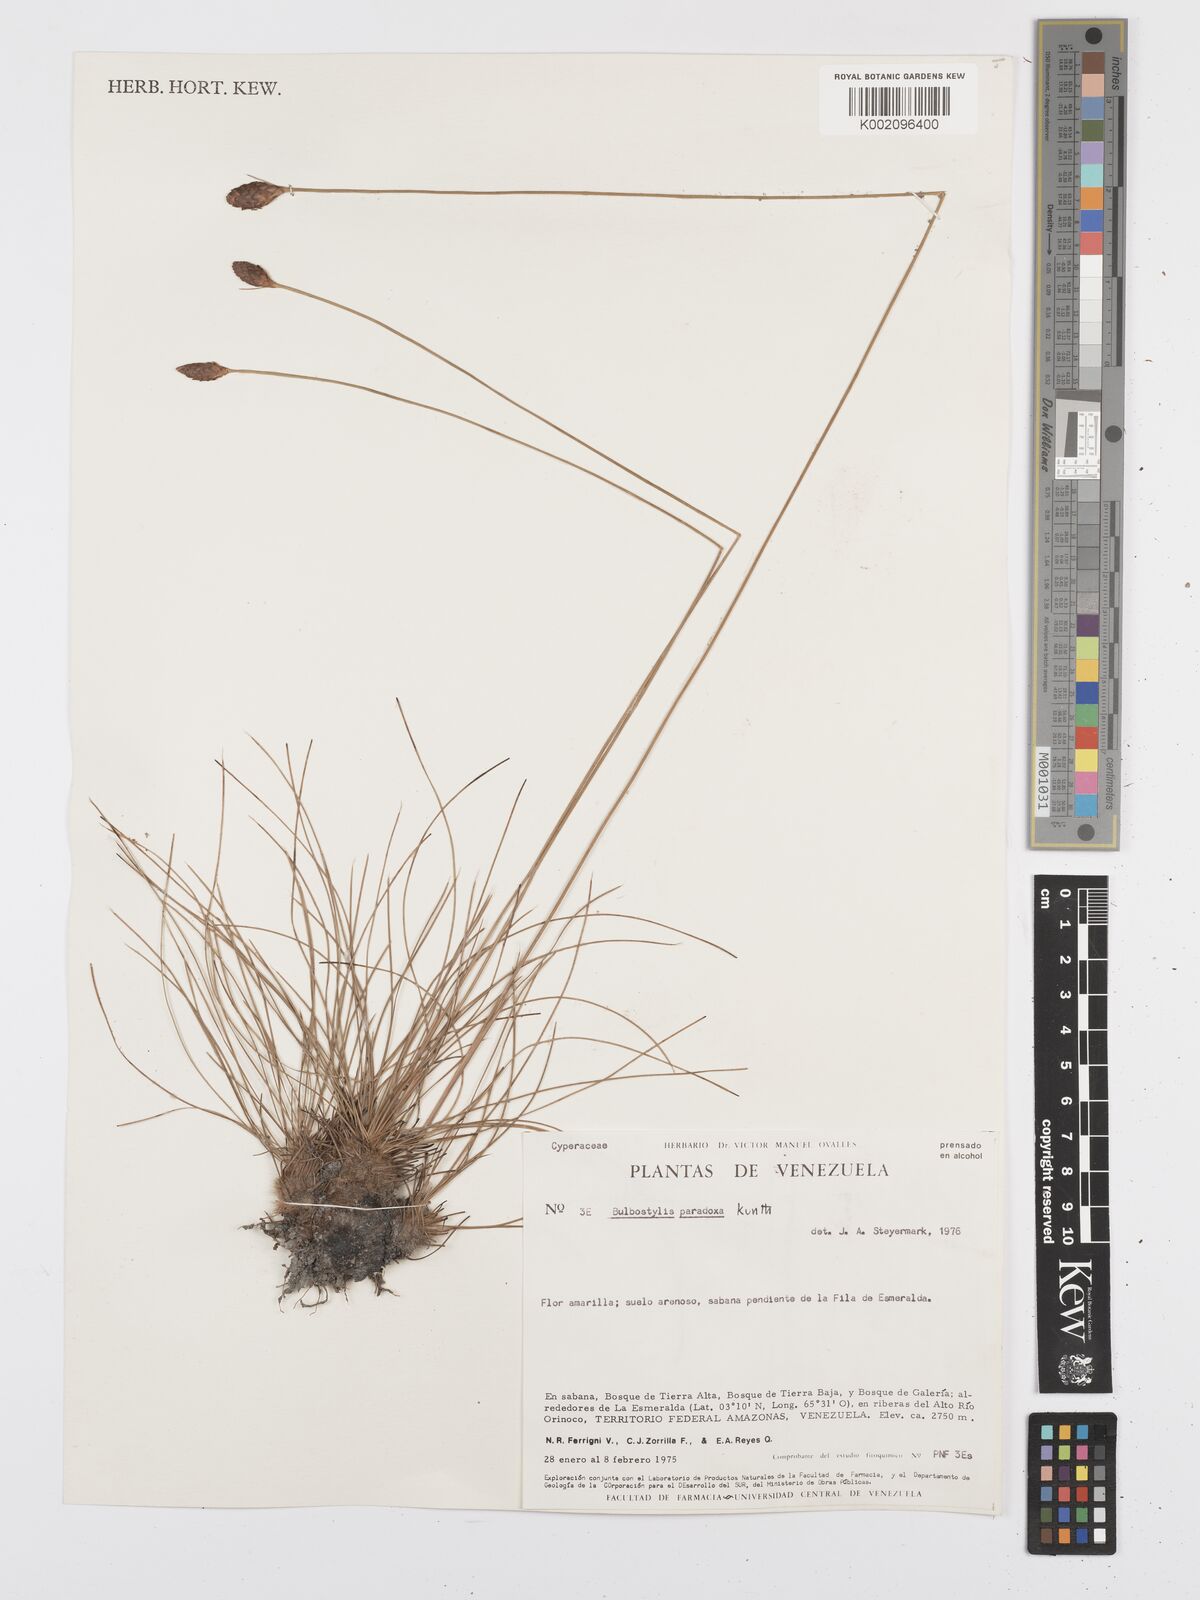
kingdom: Plantae
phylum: Tracheophyta
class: Liliopsida
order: Poales
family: Cyperaceae
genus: Bulbostylis
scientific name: Bulbostylis lanata
